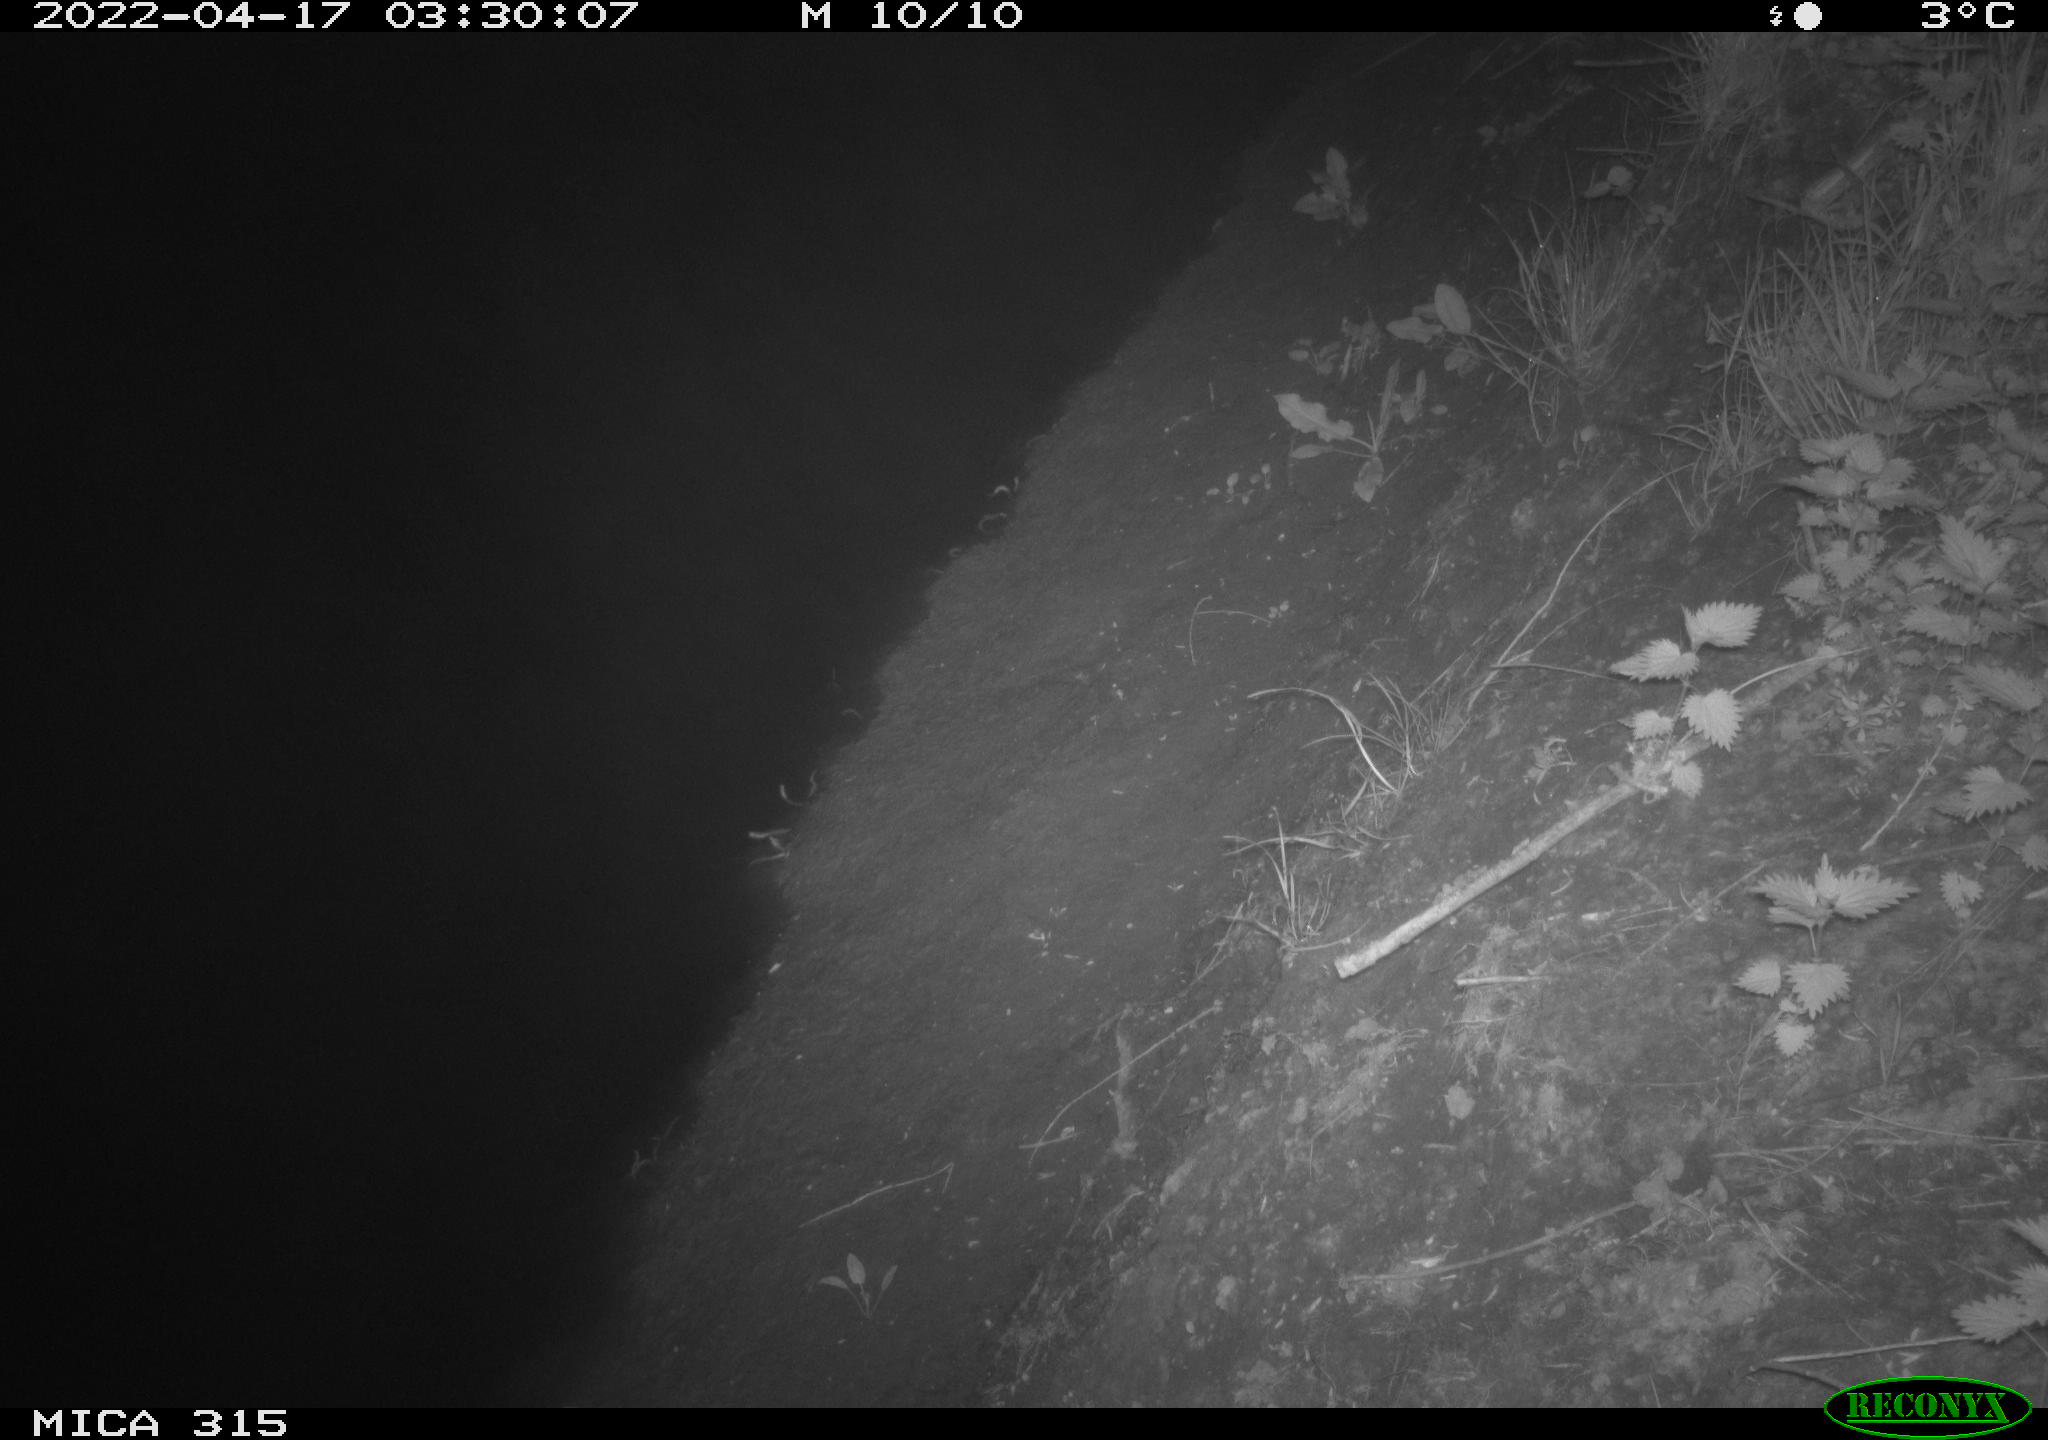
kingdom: Animalia
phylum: Chordata
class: Aves
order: Anseriformes
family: Anatidae
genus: Anas
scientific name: Anas platyrhynchos
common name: Mallard
